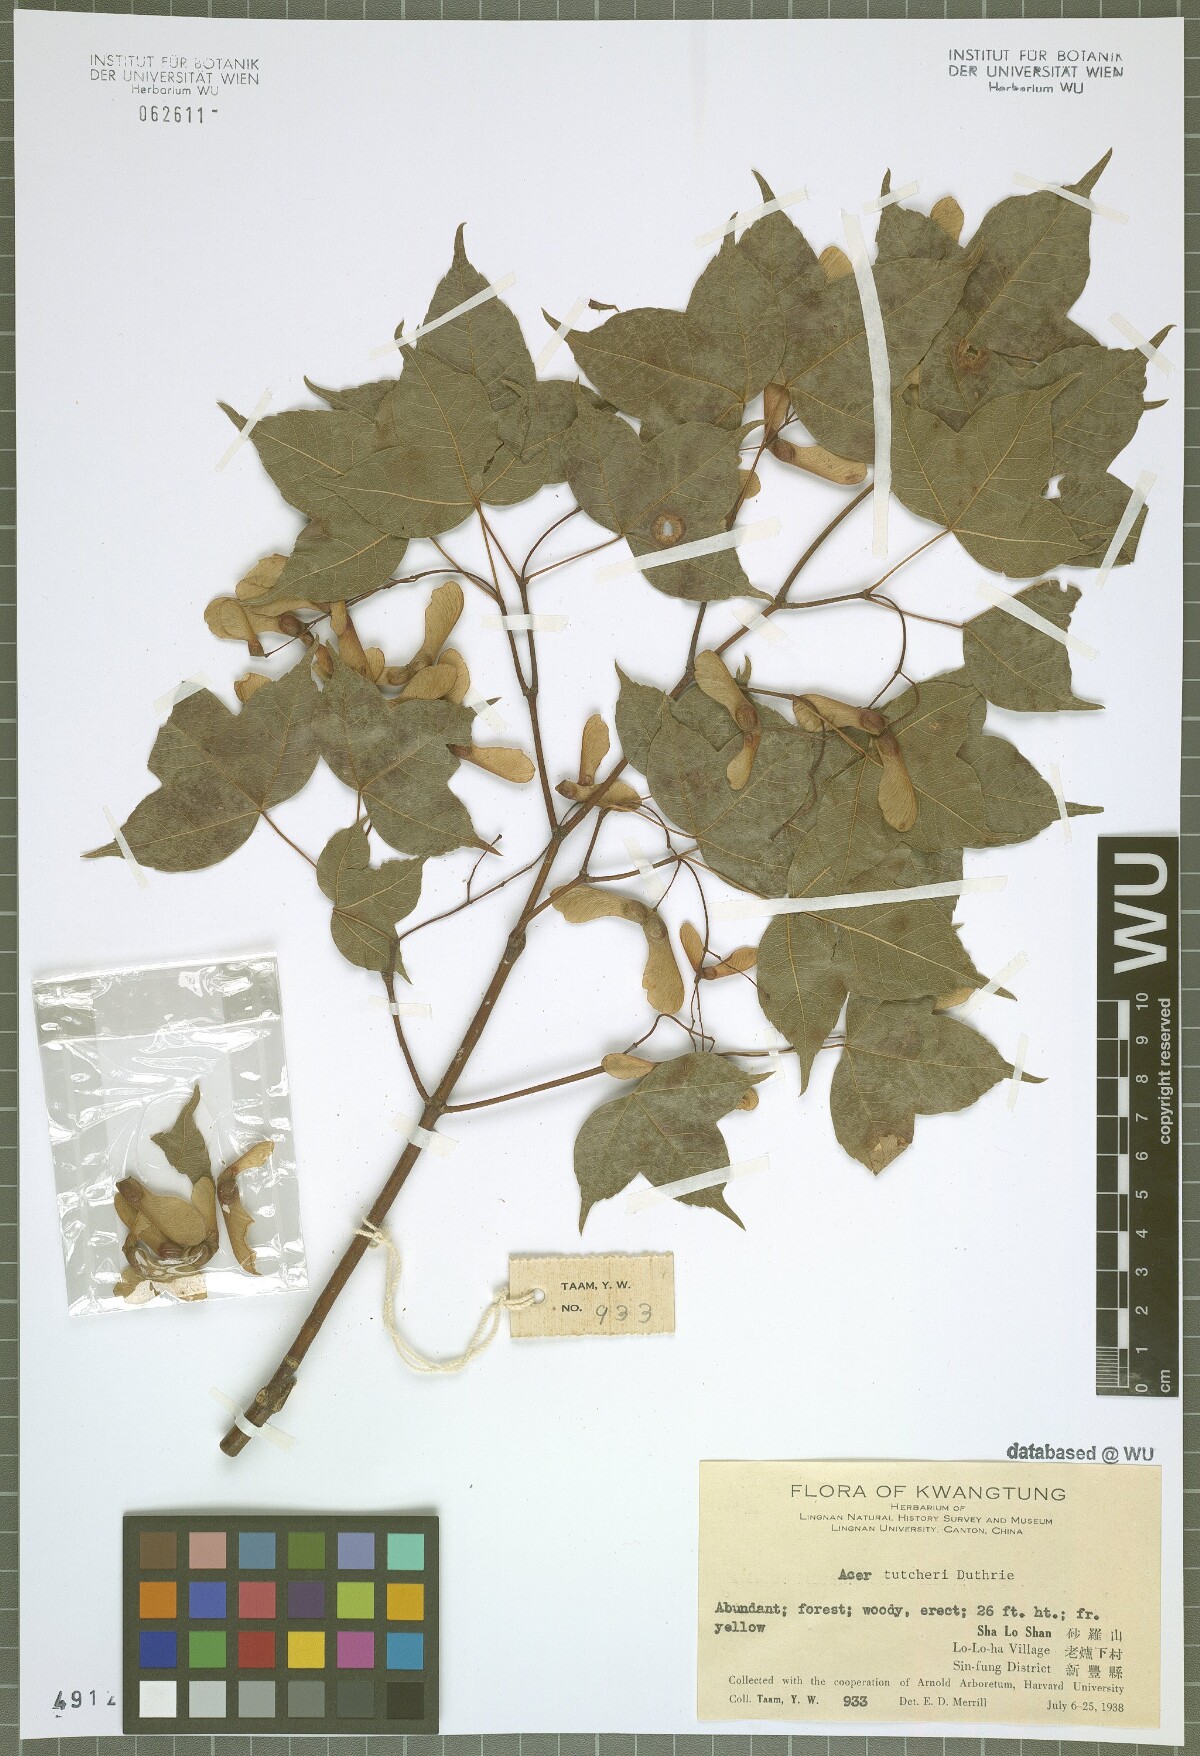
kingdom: Plantae
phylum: Tracheophyta
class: Magnoliopsida
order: Sapindales
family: Sapindaceae
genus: Acer
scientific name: Acer tutcheri
